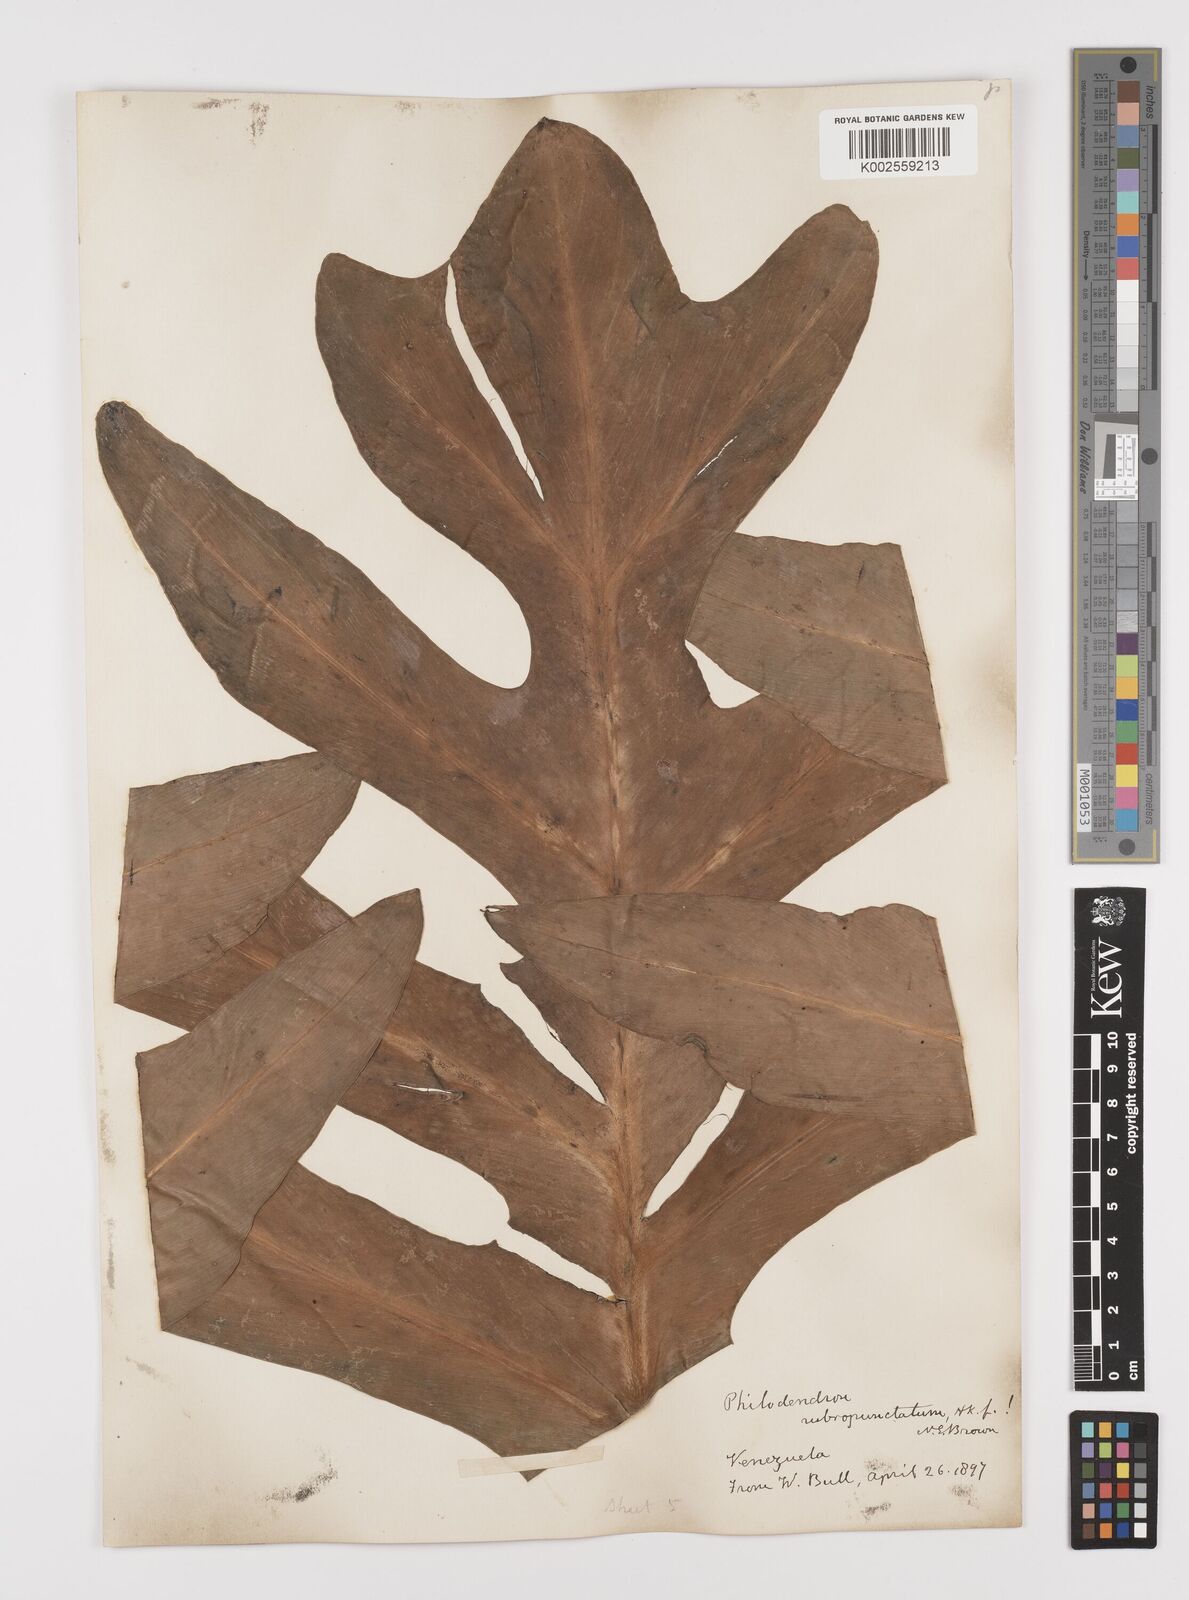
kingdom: Plantae
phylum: Tracheophyta
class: Liliopsida
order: Alismatales
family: Araceae
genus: Philodendron
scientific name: Philodendron pinnatifidum
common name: Comb-leaf philodendron
